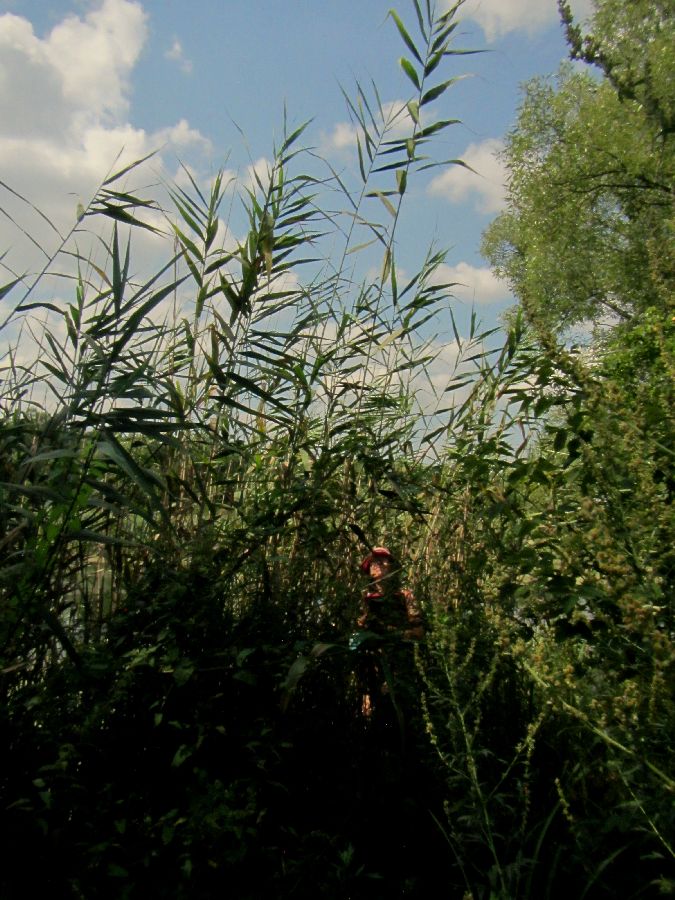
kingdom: Plantae
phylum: Tracheophyta
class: Liliopsida
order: Poales
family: Poaceae
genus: Phragmites
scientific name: Phragmites australis
